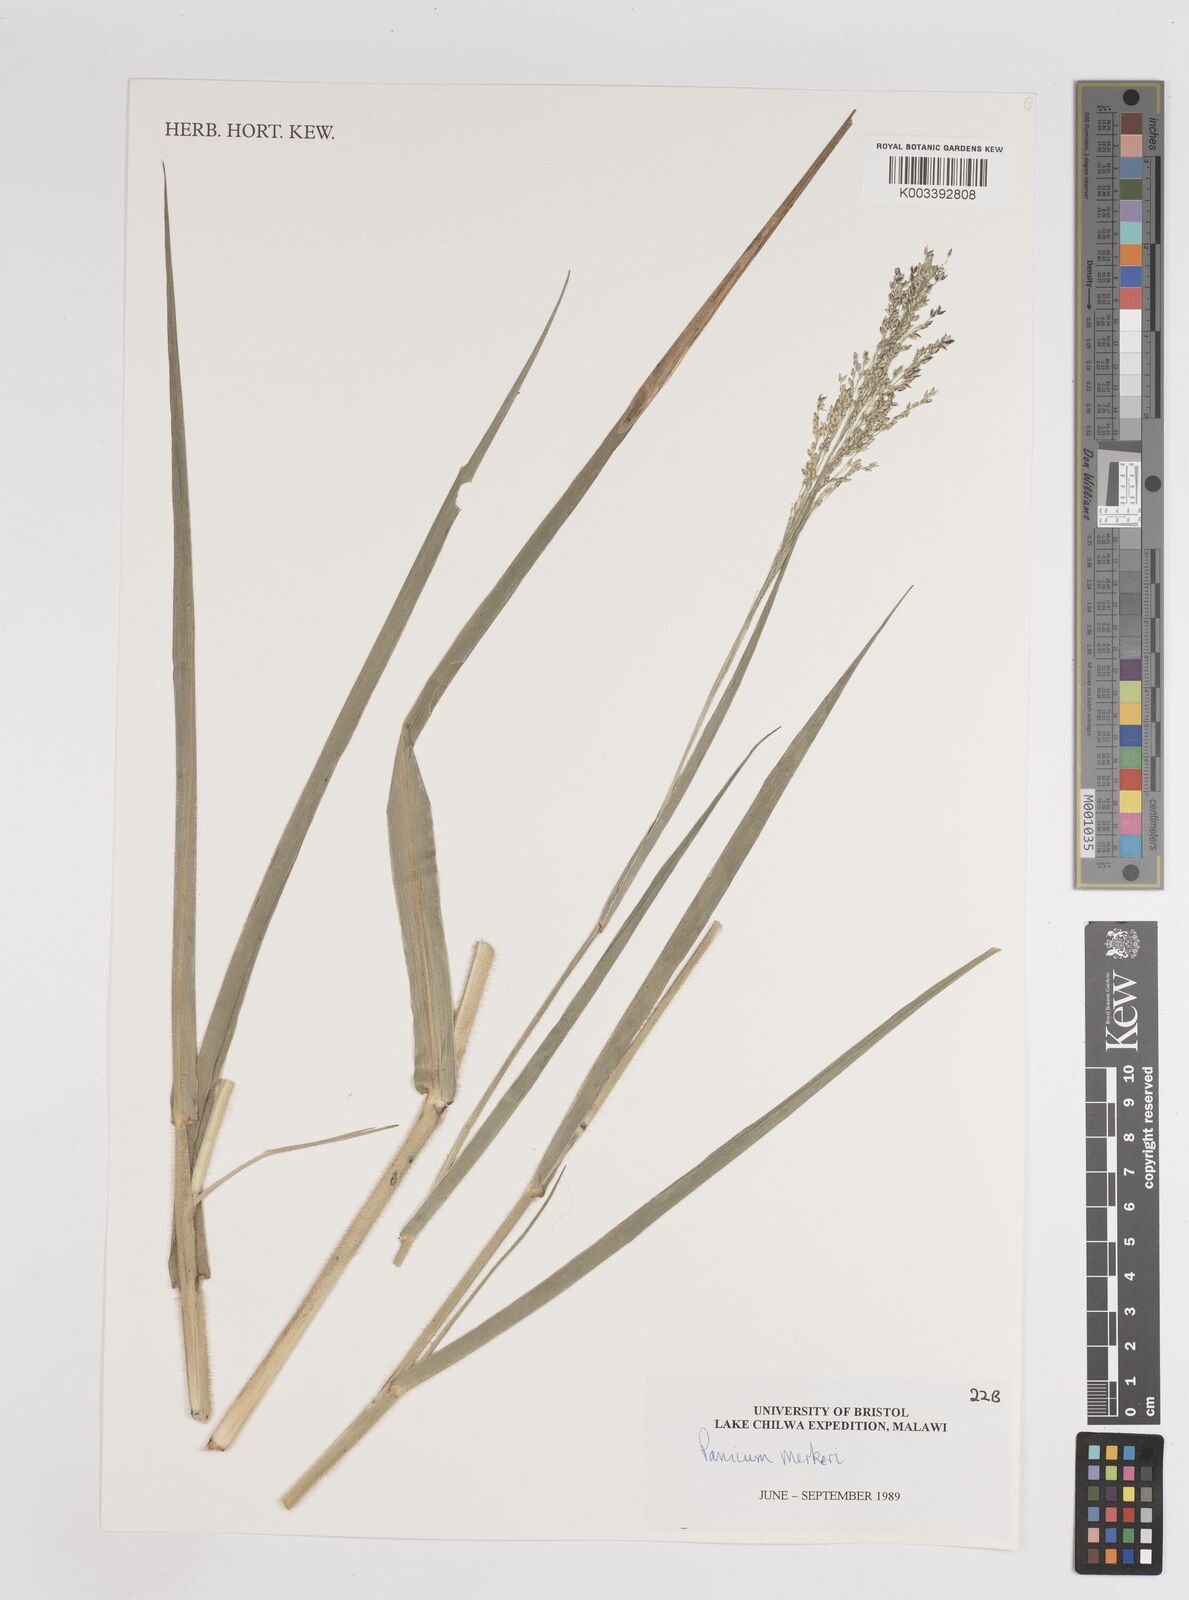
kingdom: Plantae
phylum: Tracheophyta
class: Liliopsida
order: Poales
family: Poaceae
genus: Panicum
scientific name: Panicum merkeri
